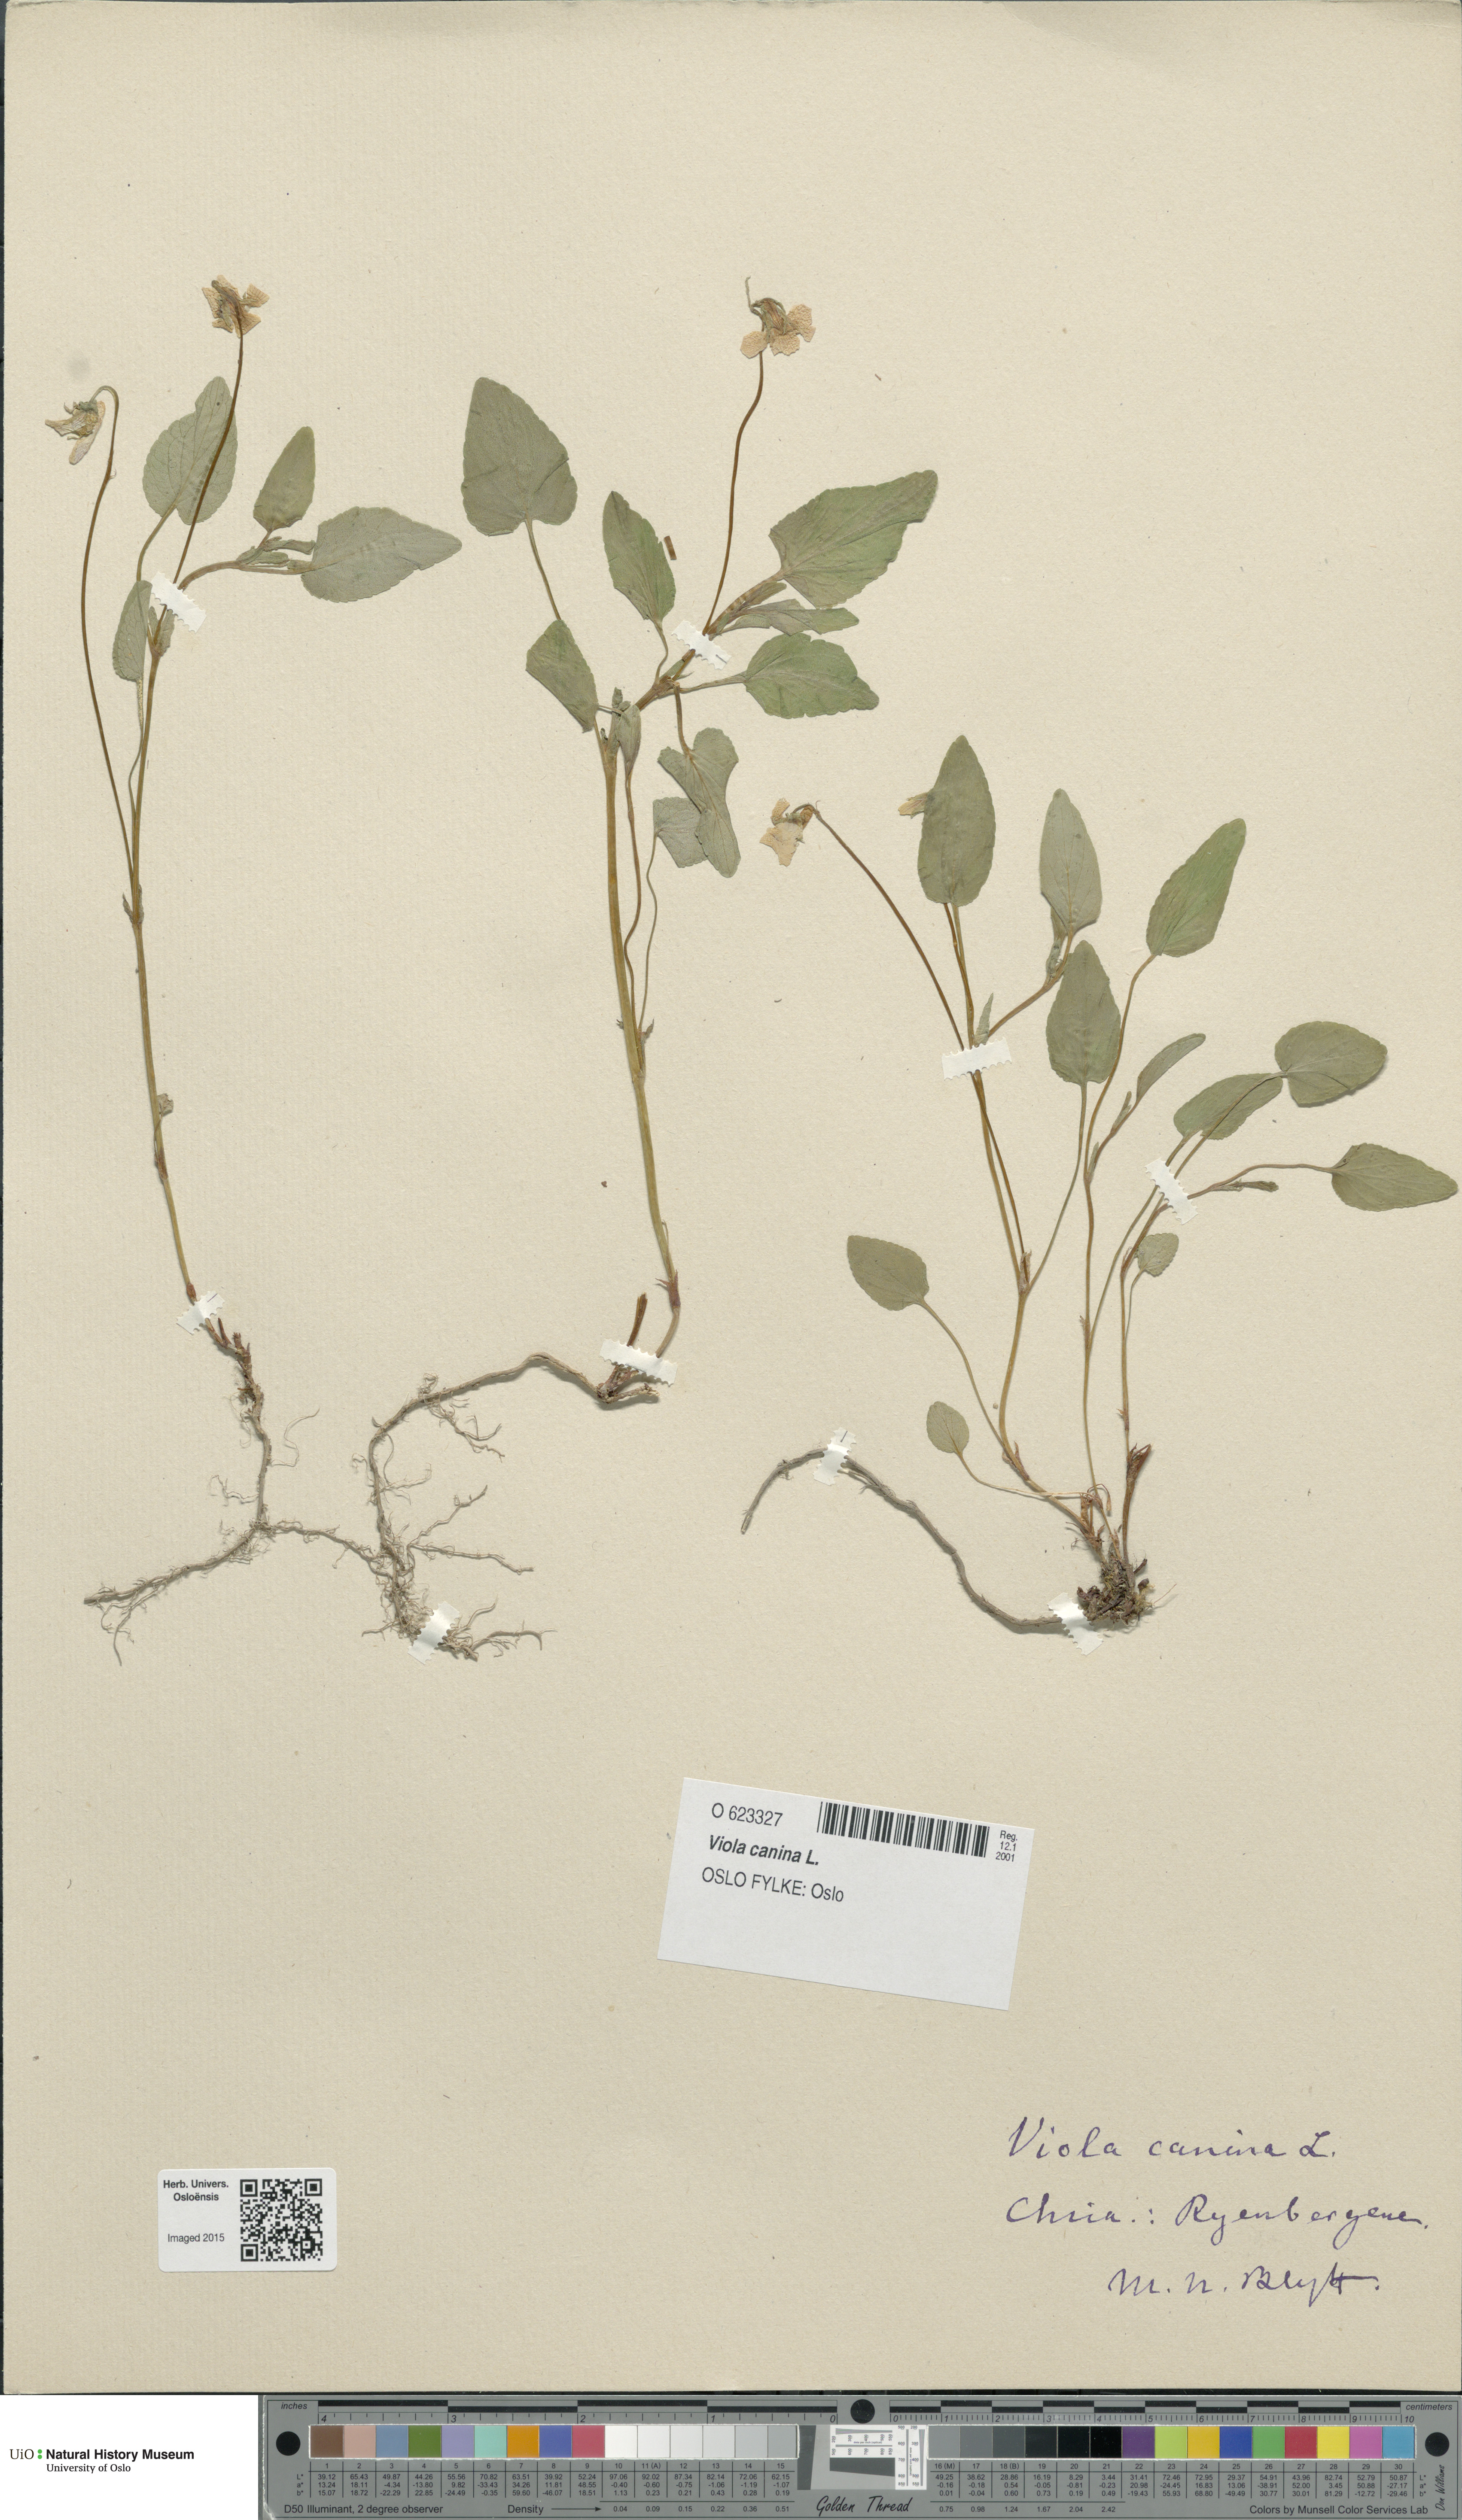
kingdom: Plantae
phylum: Tracheophyta
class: Magnoliopsida
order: Malpighiales
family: Violaceae
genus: Viola
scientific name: Viola canina
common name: Heath dog-violet
